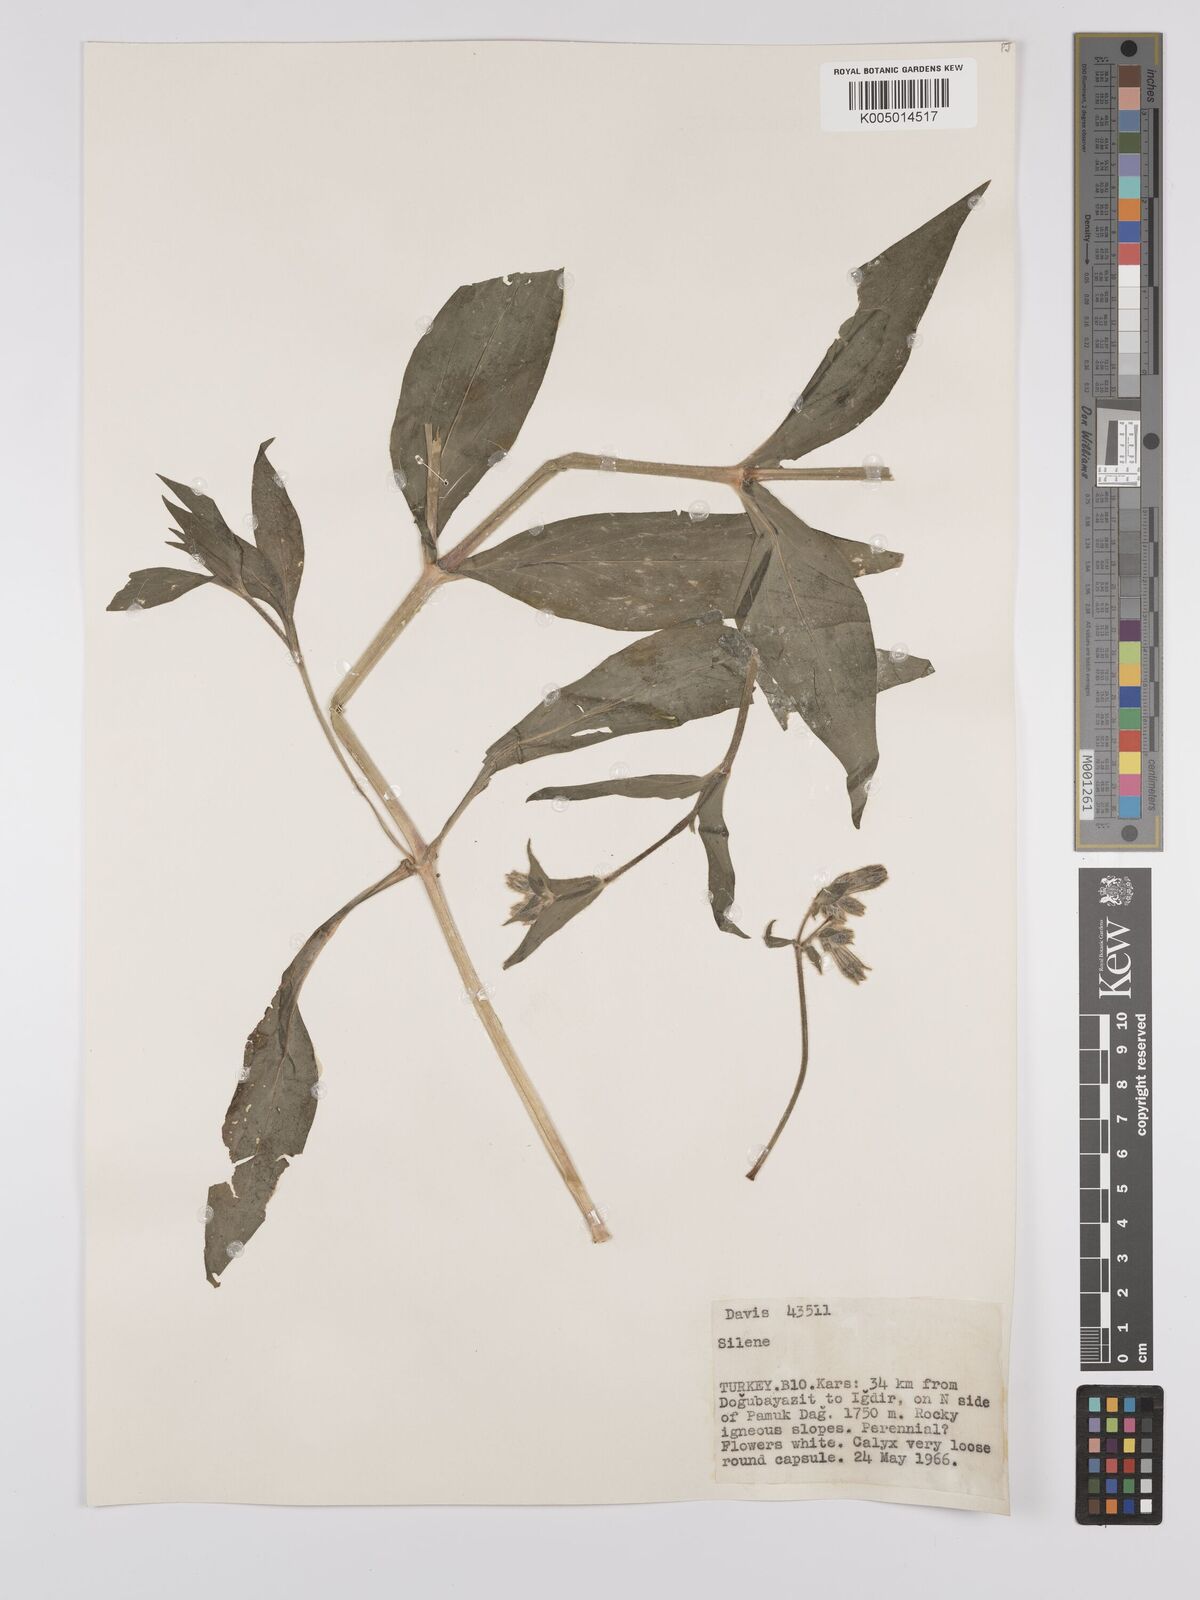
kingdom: Plantae
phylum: Tracheophyta
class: Magnoliopsida
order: Caryophyllales
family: Caryophyllaceae
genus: Silene
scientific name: Silene
